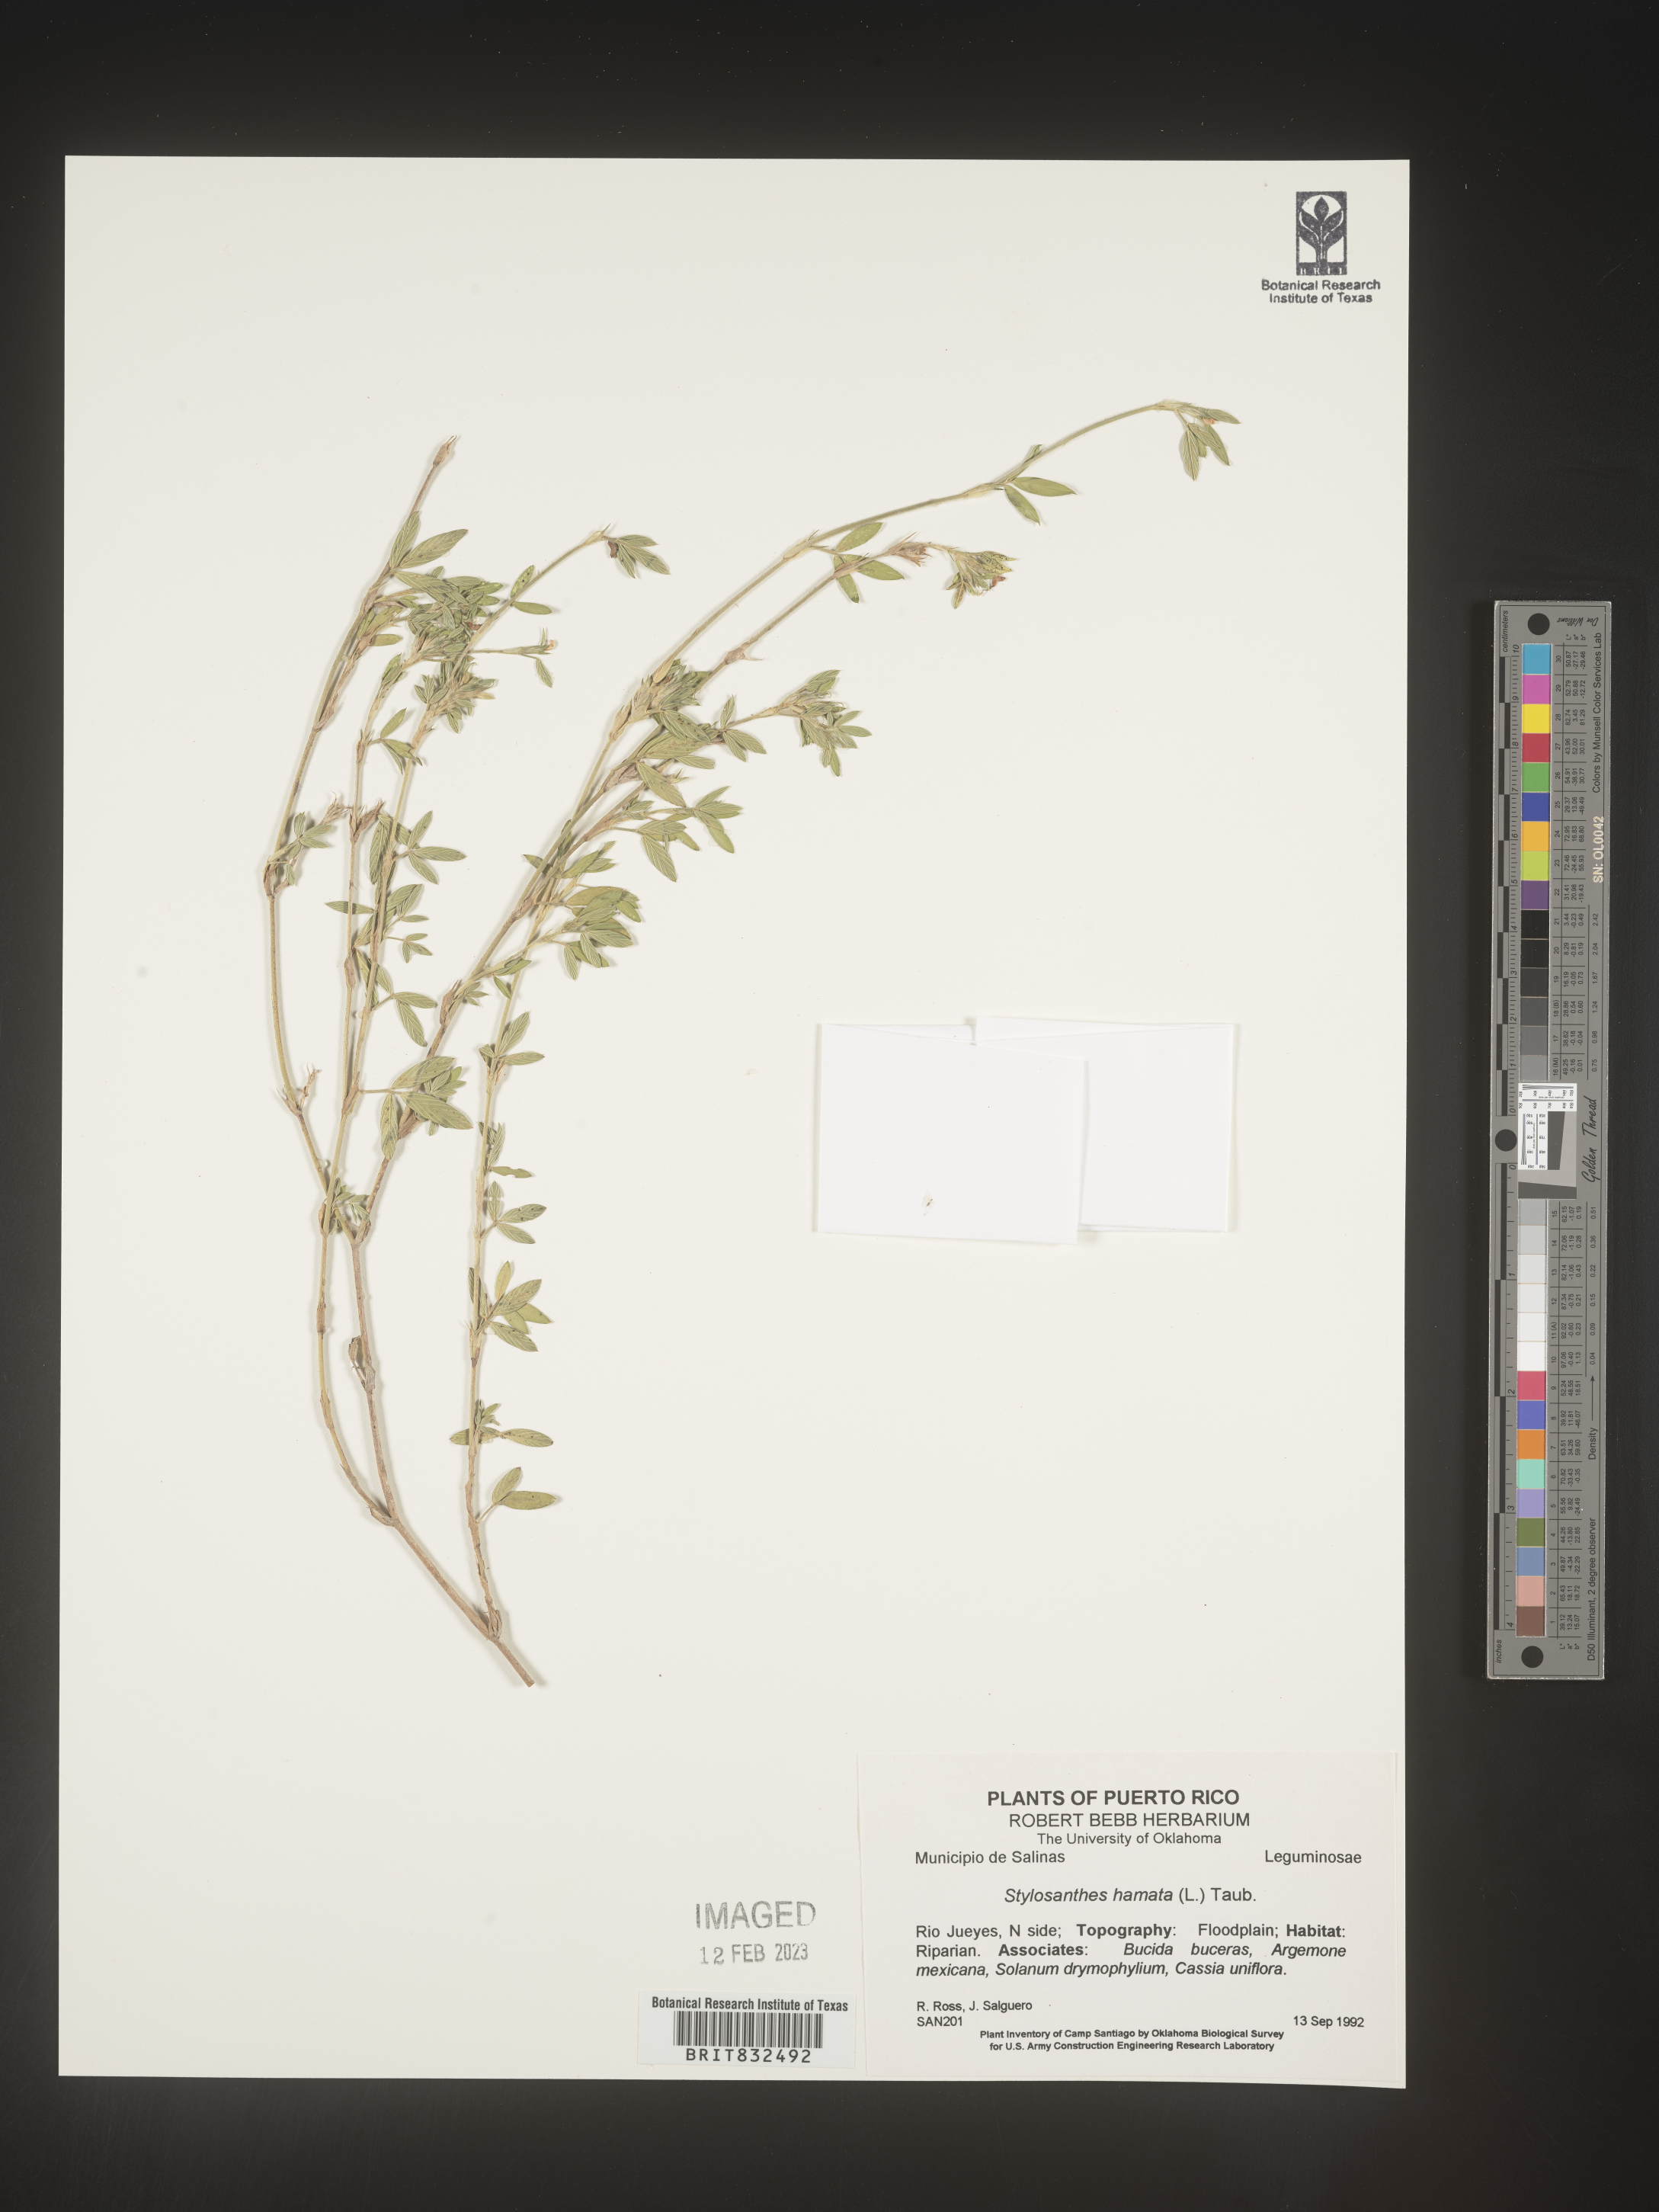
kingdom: Plantae
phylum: Tracheophyta
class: Magnoliopsida
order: Fabales
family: Fabaceae
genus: Stylosanthes
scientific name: Stylosanthes
